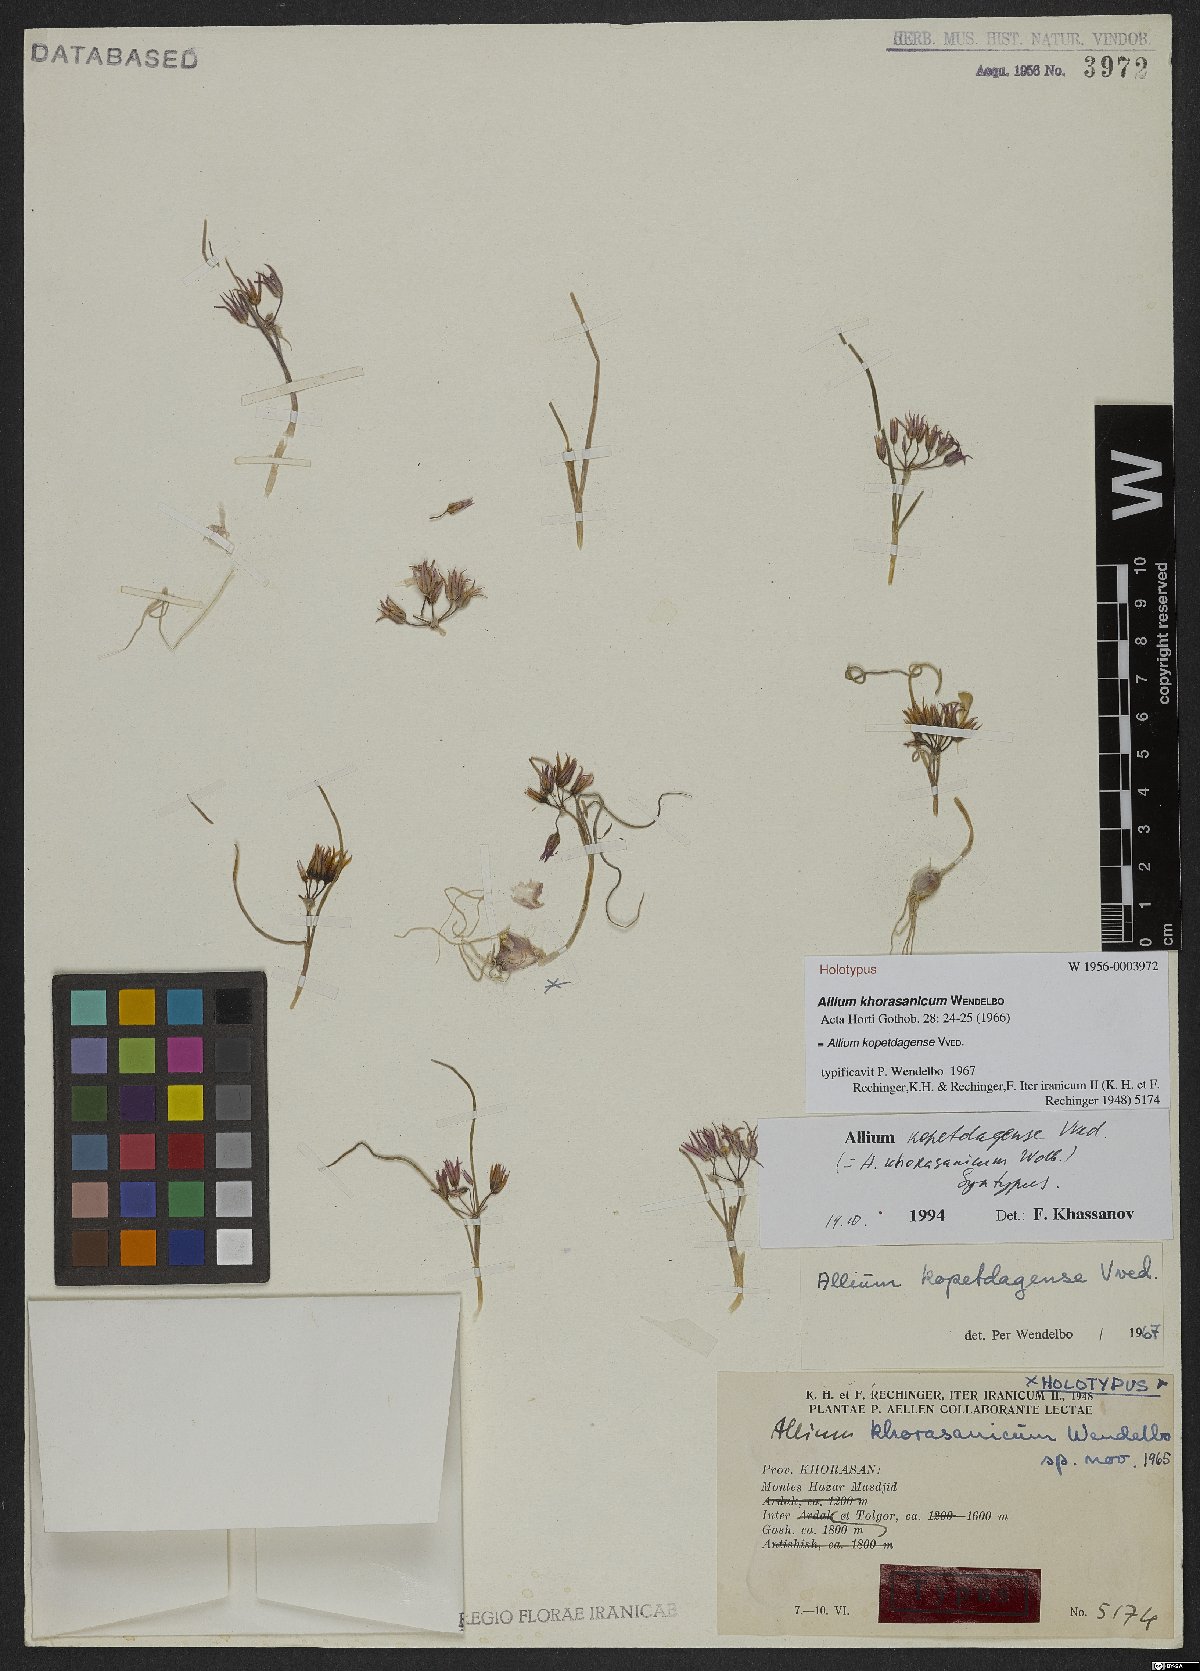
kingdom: Plantae
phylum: Tracheophyta
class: Liliopsida
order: Asparagales
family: Amaryllidaceae
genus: Allium
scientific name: Allium kopetdagense
